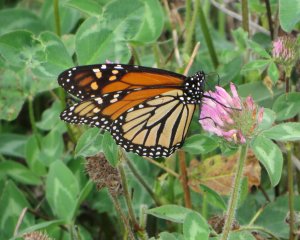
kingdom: Animalia
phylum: Arthropoda
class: Insecta
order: Lepidoptera
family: Nymphalidae
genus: Danaus
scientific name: Danaus plexippus
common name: Monarch
